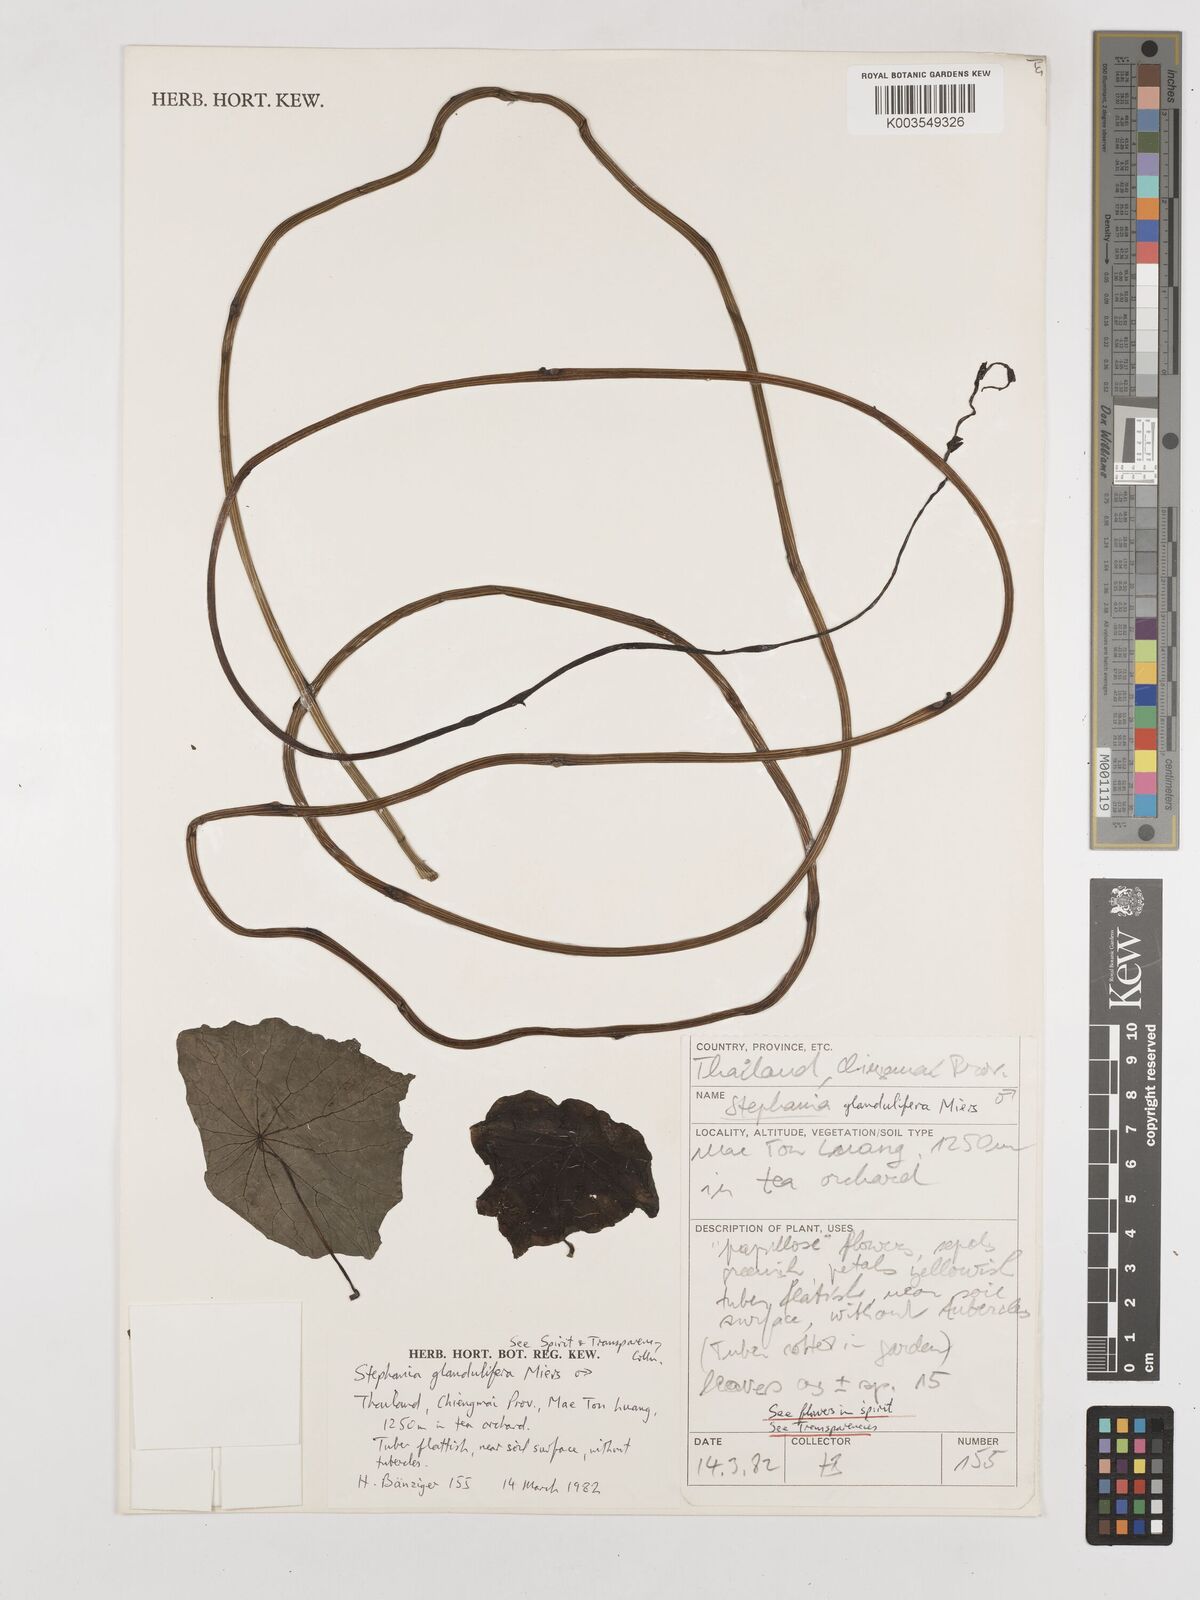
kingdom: Plantae
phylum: Tracheophyta
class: Magnoliopsida
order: Ranunculales
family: Menispermaceae
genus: Stephania
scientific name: Stephania glandulifera
